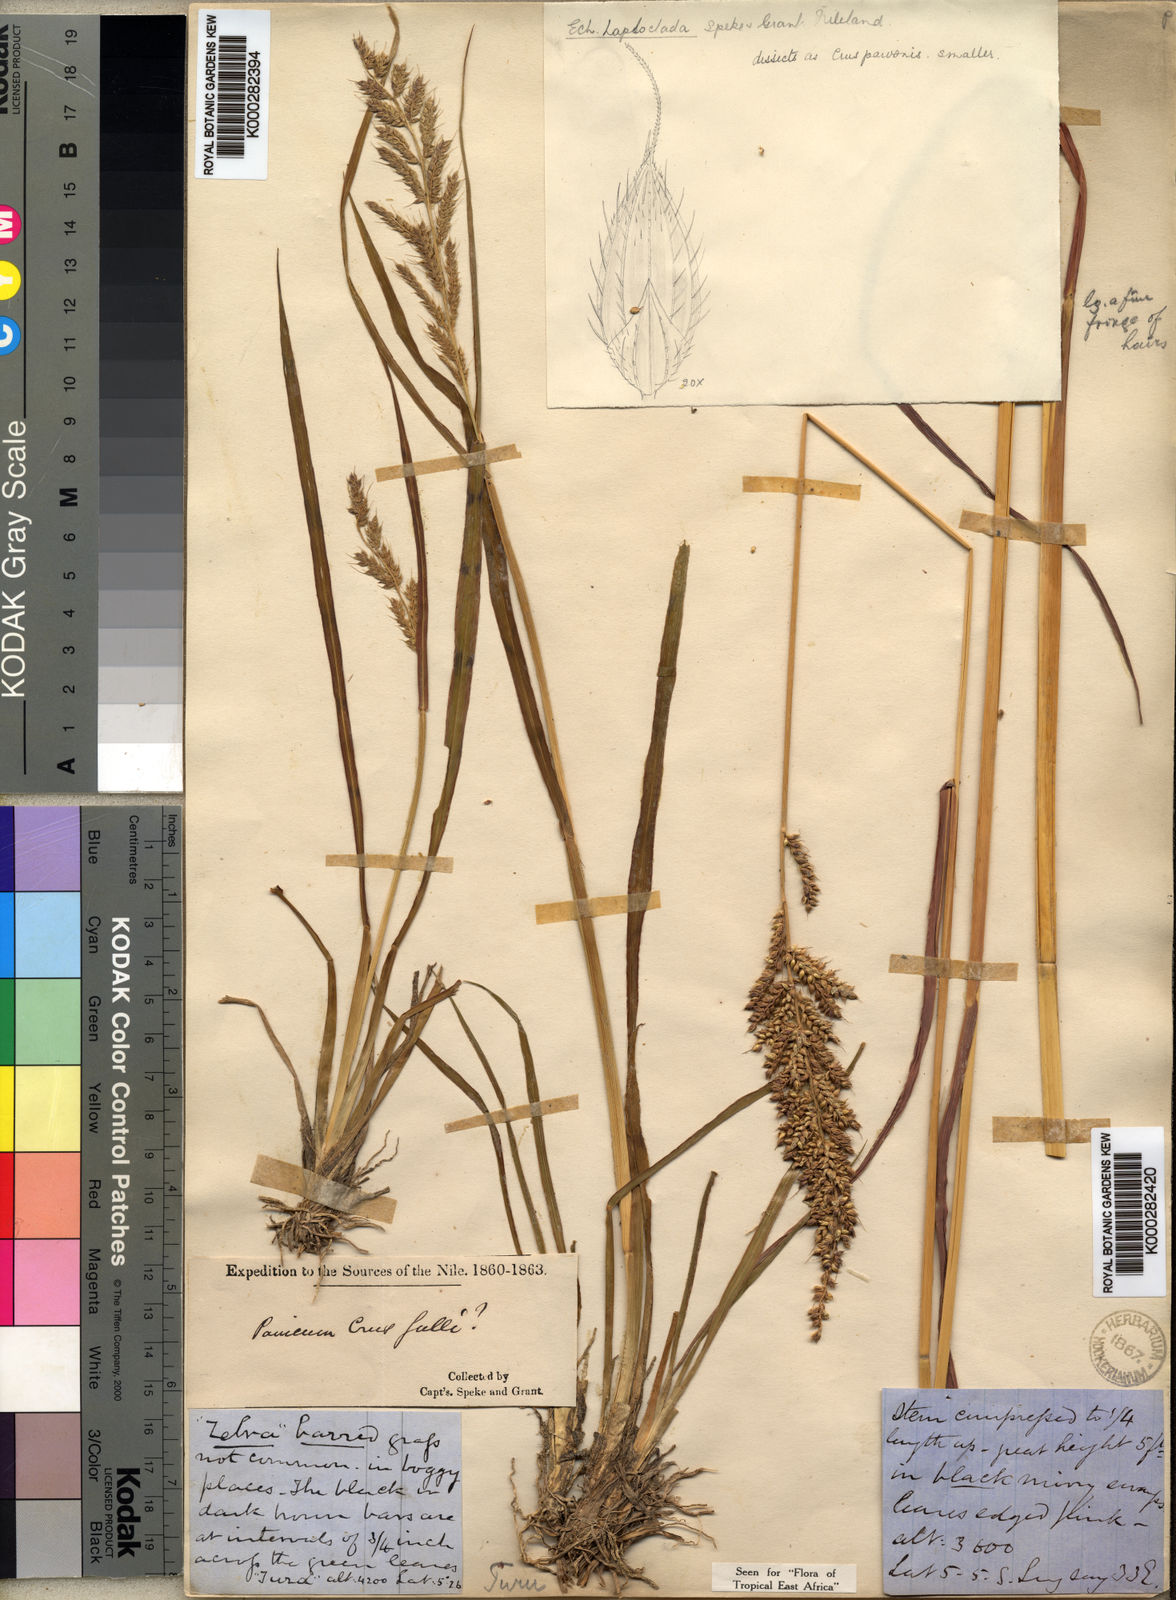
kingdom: Plantae
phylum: Tracheophyta
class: Liliopsida
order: Poales
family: Poaceae
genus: Echinochloa
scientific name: Echinochloa haploclada
